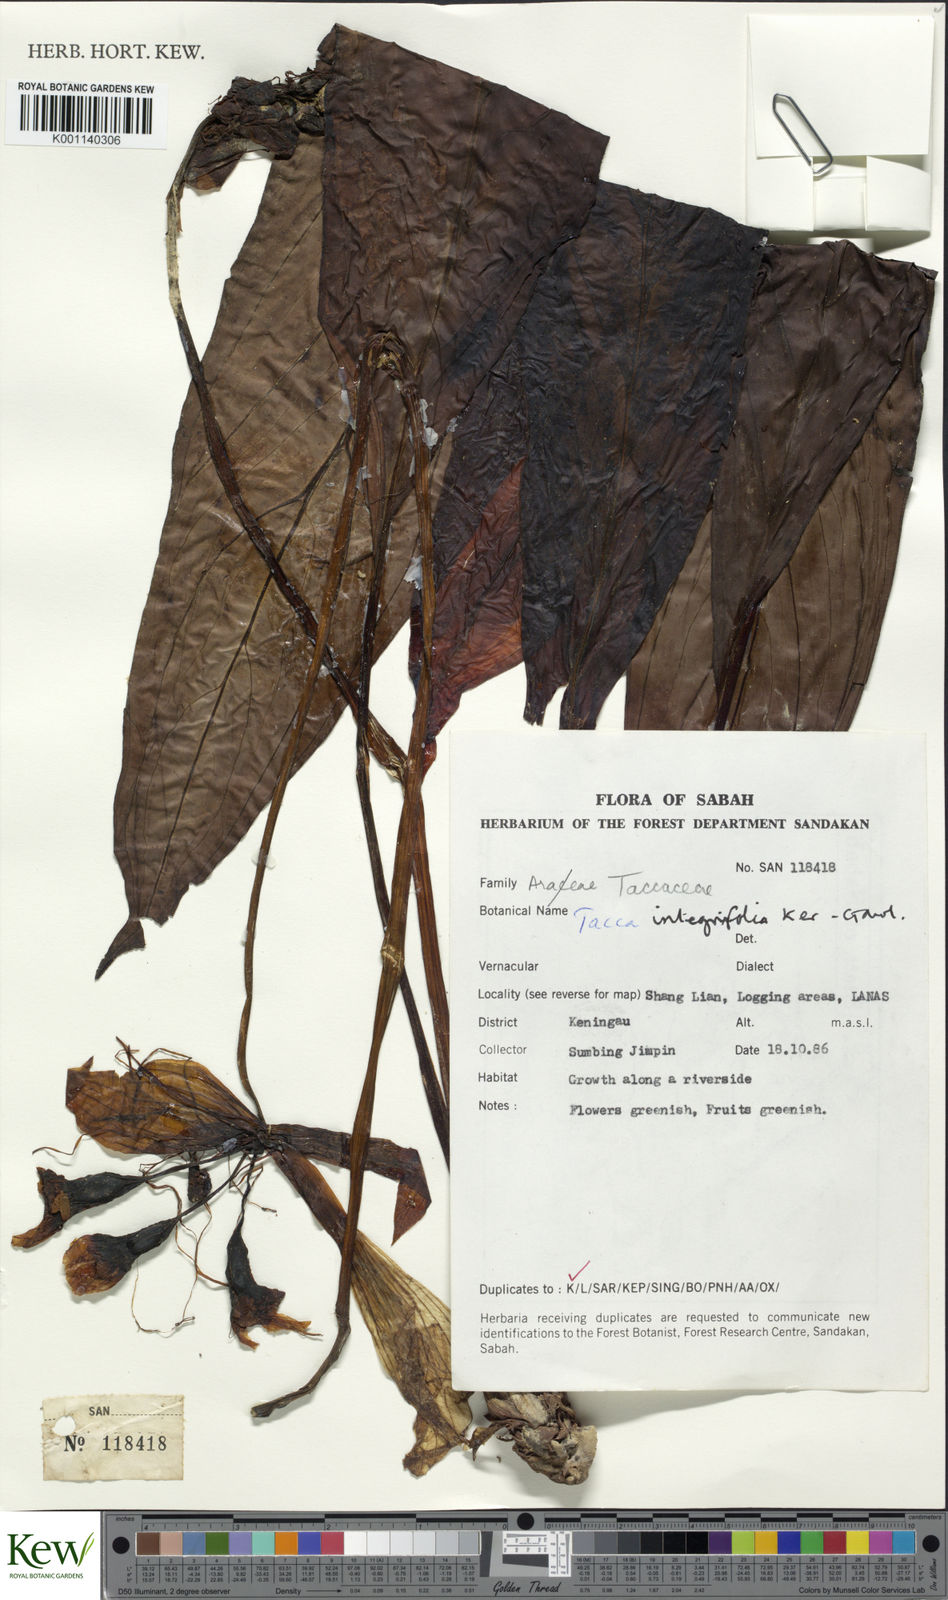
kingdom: Plantae
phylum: Tracheophyta
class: Liliopsida
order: Dioscoreales
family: Dioscoreaceae
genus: Tacca
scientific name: Tacca integrifolia
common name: Batplant
